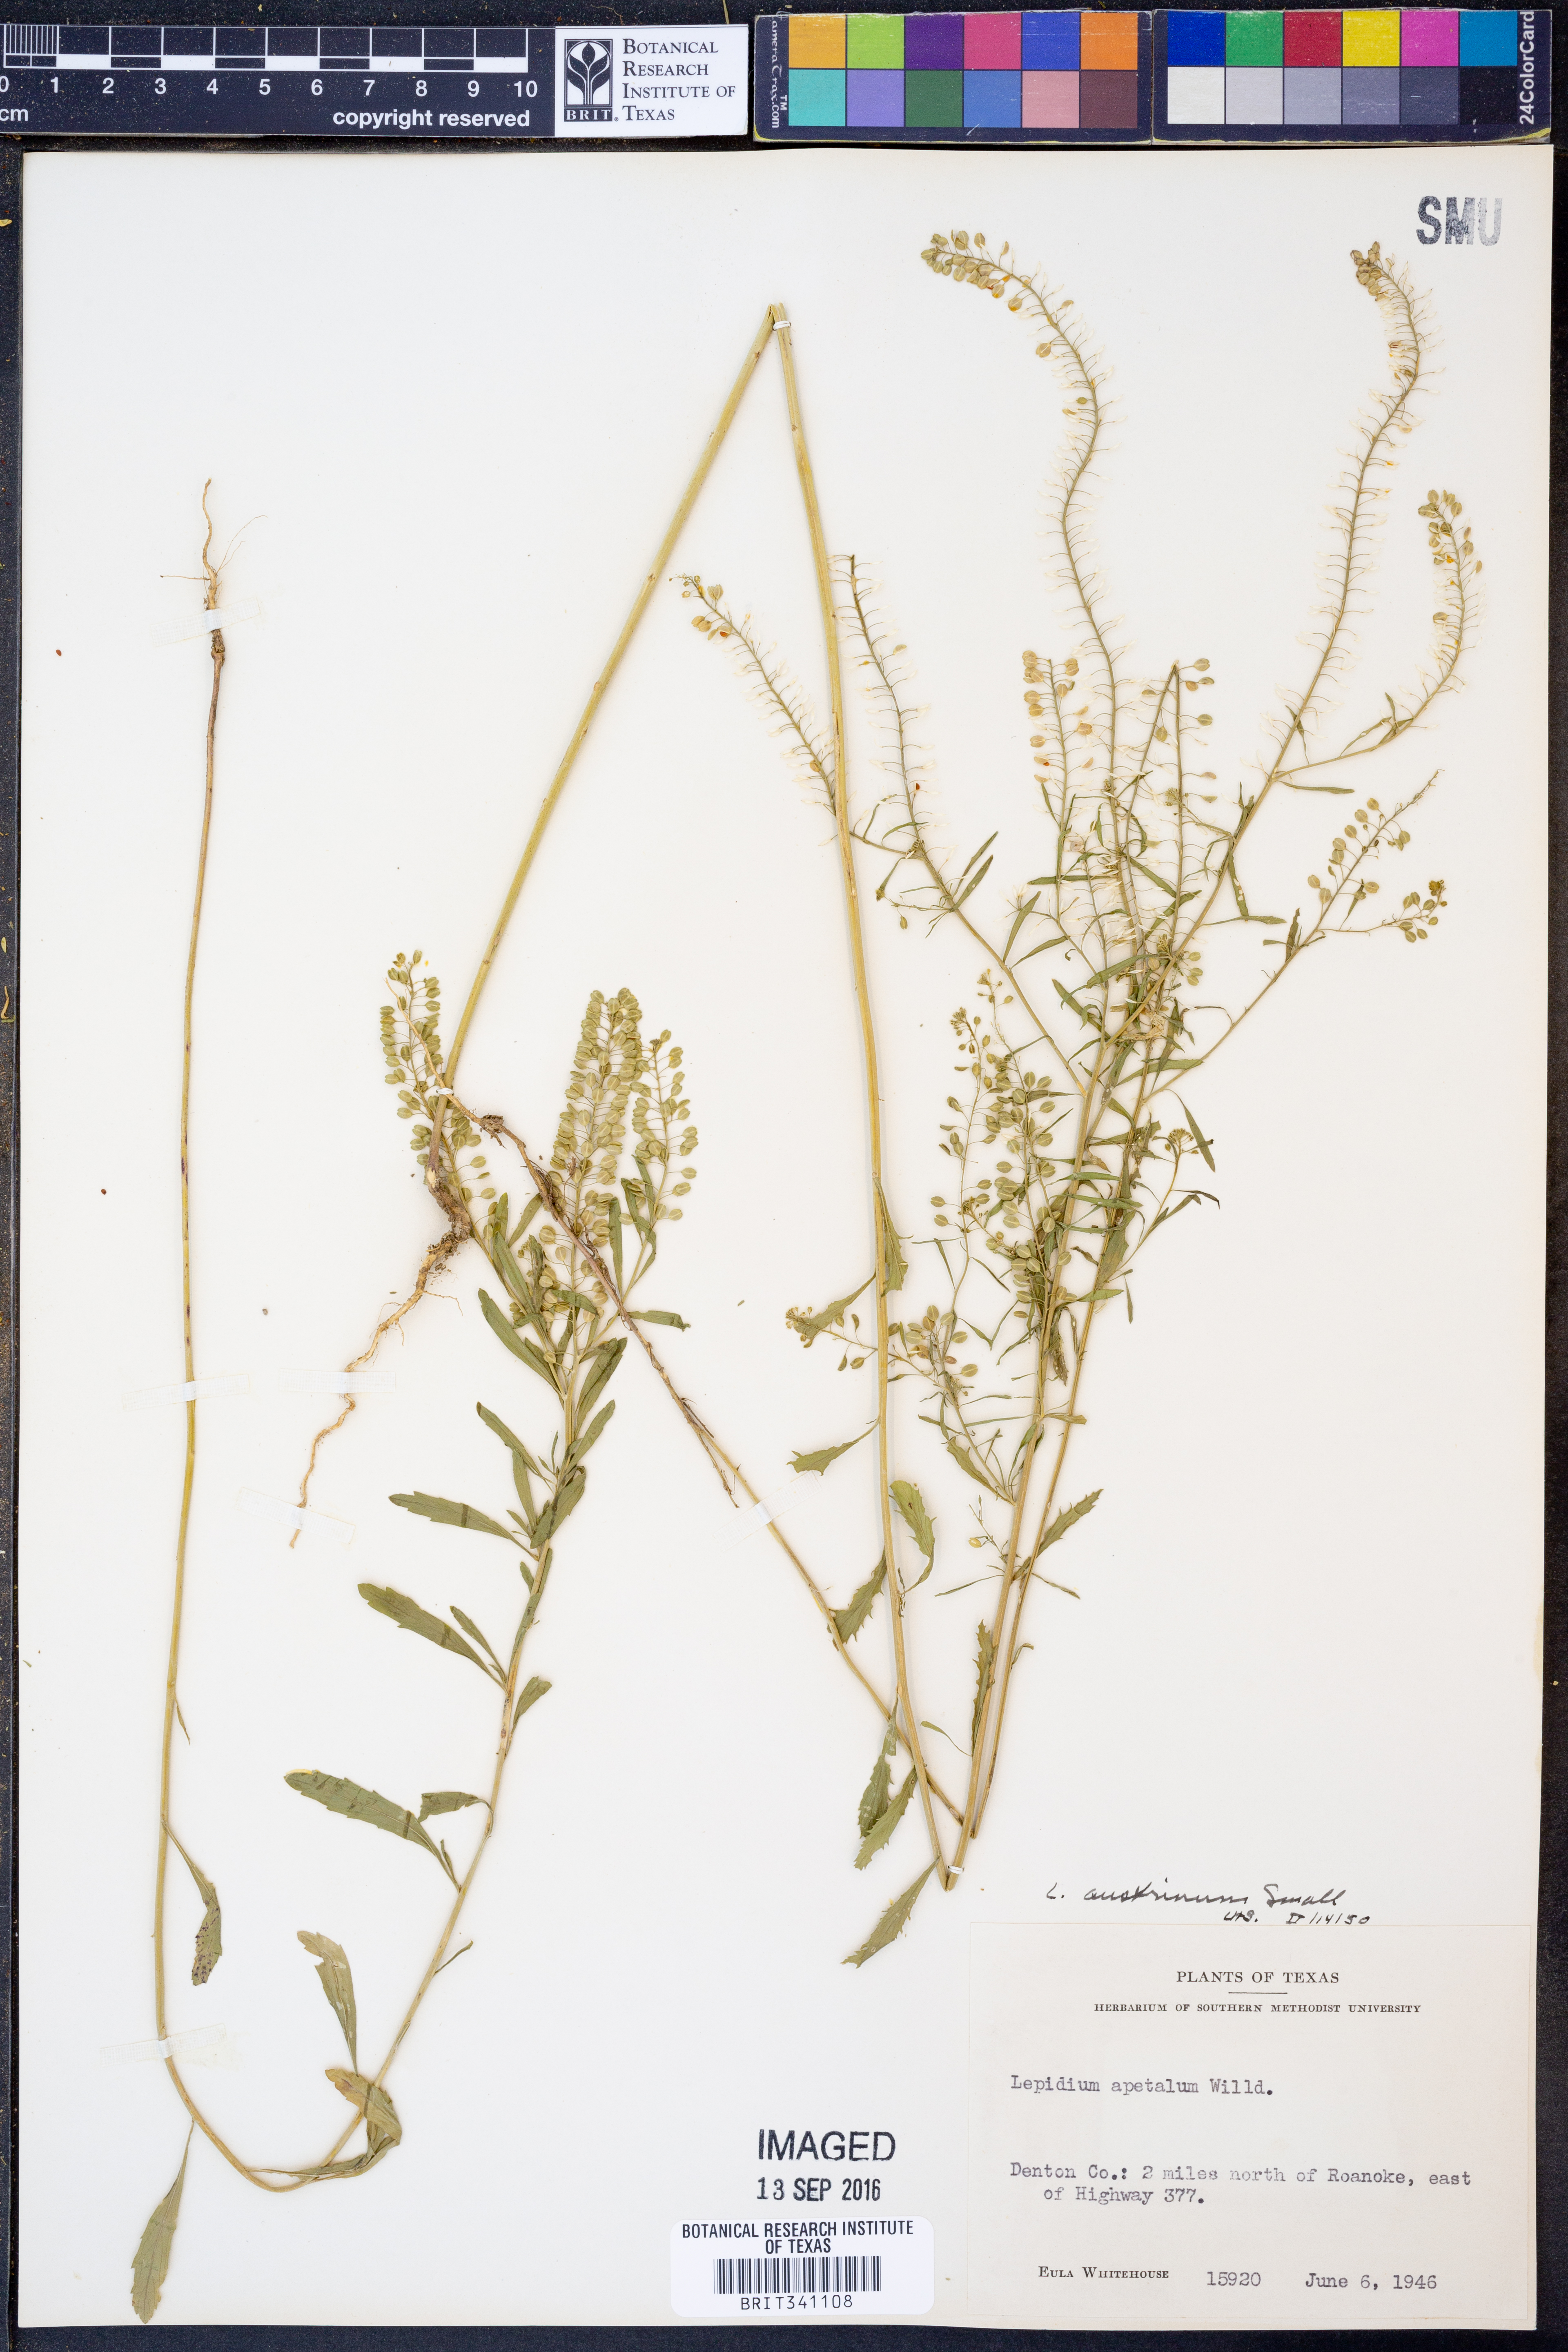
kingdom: Plantae
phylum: Tracheophyta
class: Magnoliopsida
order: Brassicales
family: Brassicaceae
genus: Lepidium
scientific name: Lepidium austrinum
